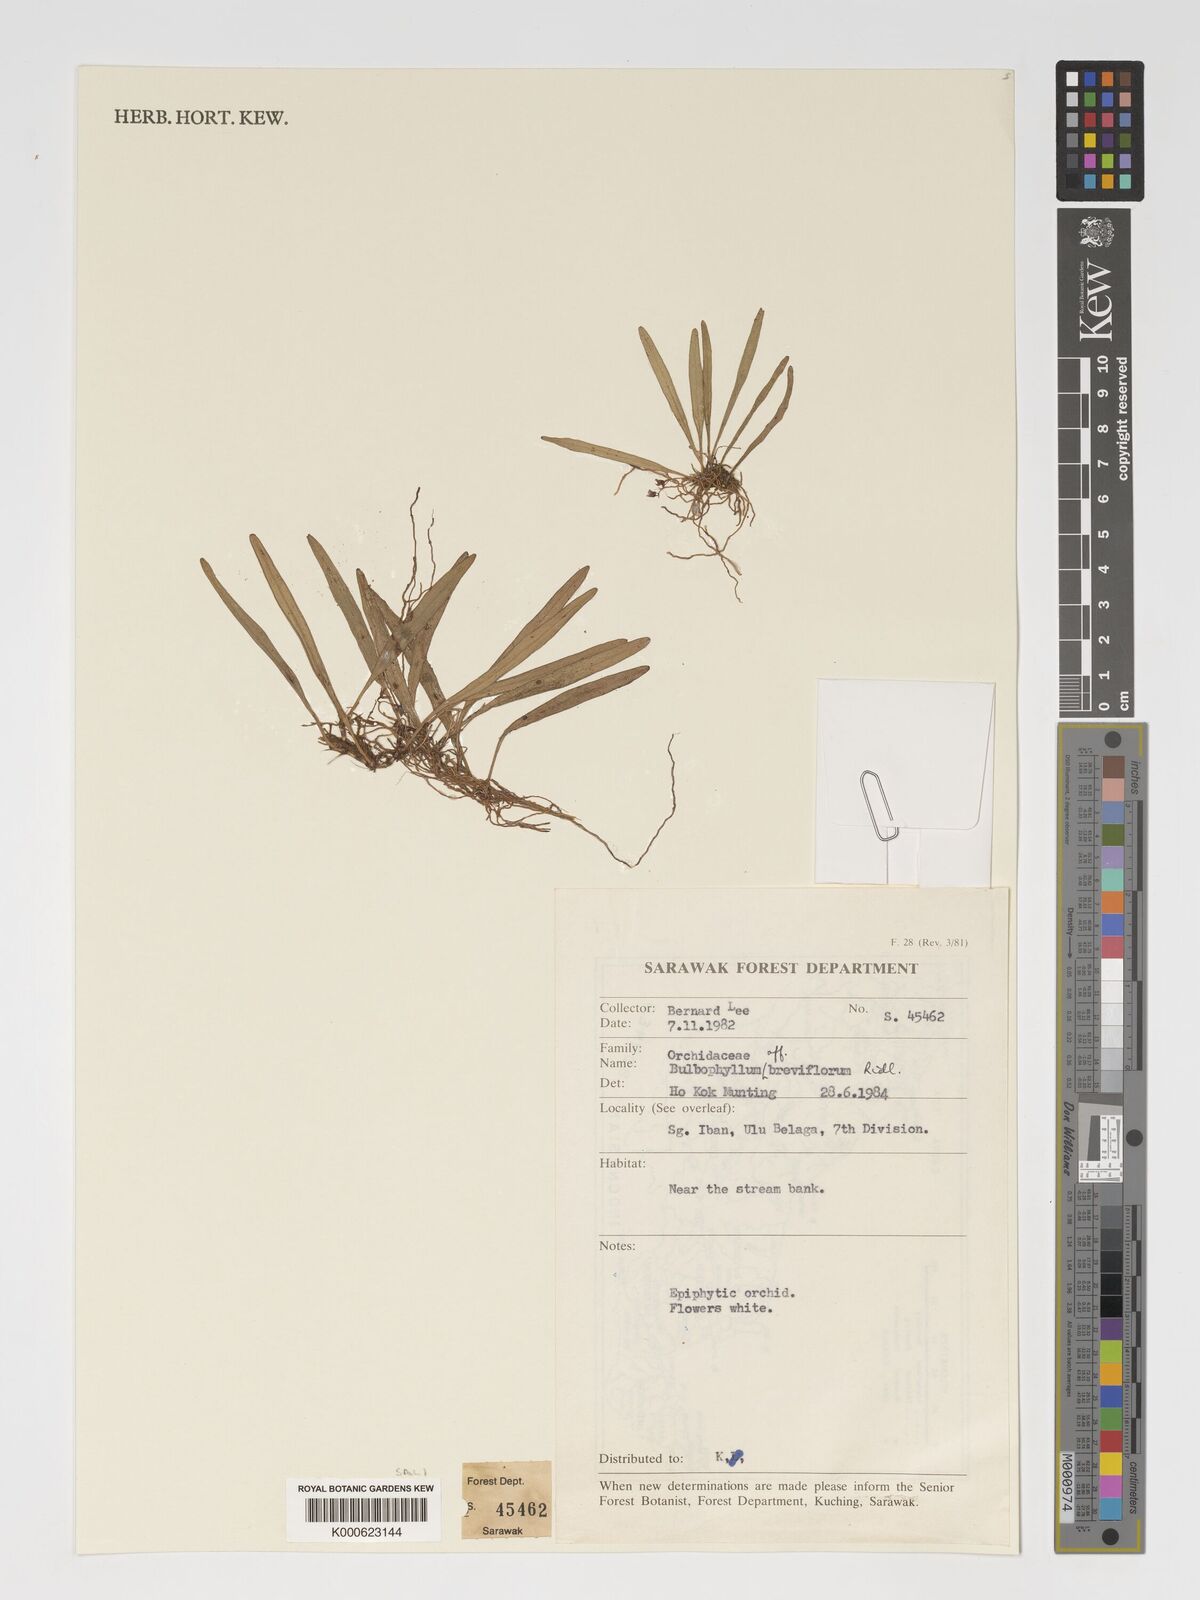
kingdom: Plantae
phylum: Tracheophyta
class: Liliopsida
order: Asparagales
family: Orchidaceae
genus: Bulbophyllum
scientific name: Bulbophyllum
